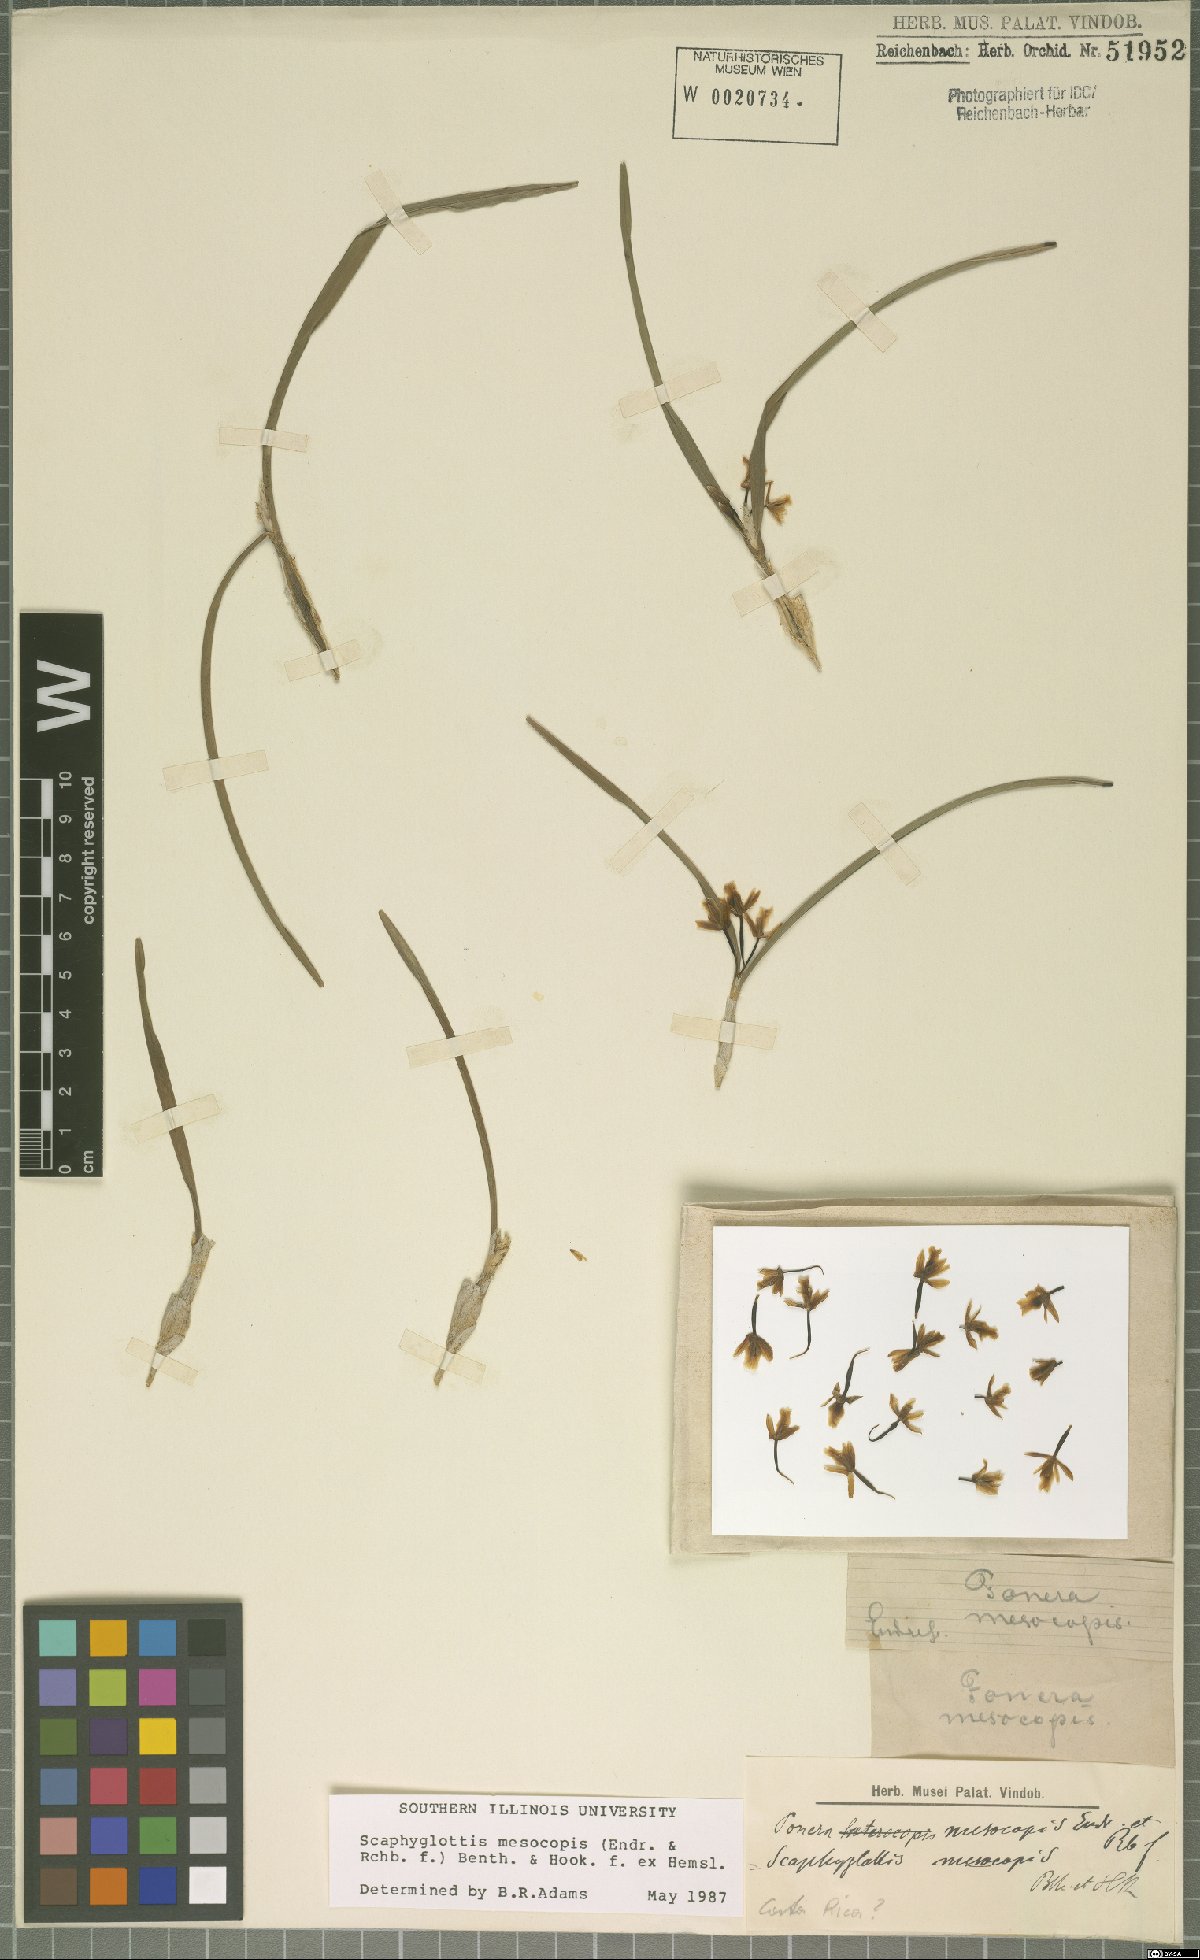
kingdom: Plantae
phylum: Tracheophyta
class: Liliopsida
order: Asparagales
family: Orchidaceae
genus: Scaphyglottis
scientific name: Scaphyglottis mesocopis
